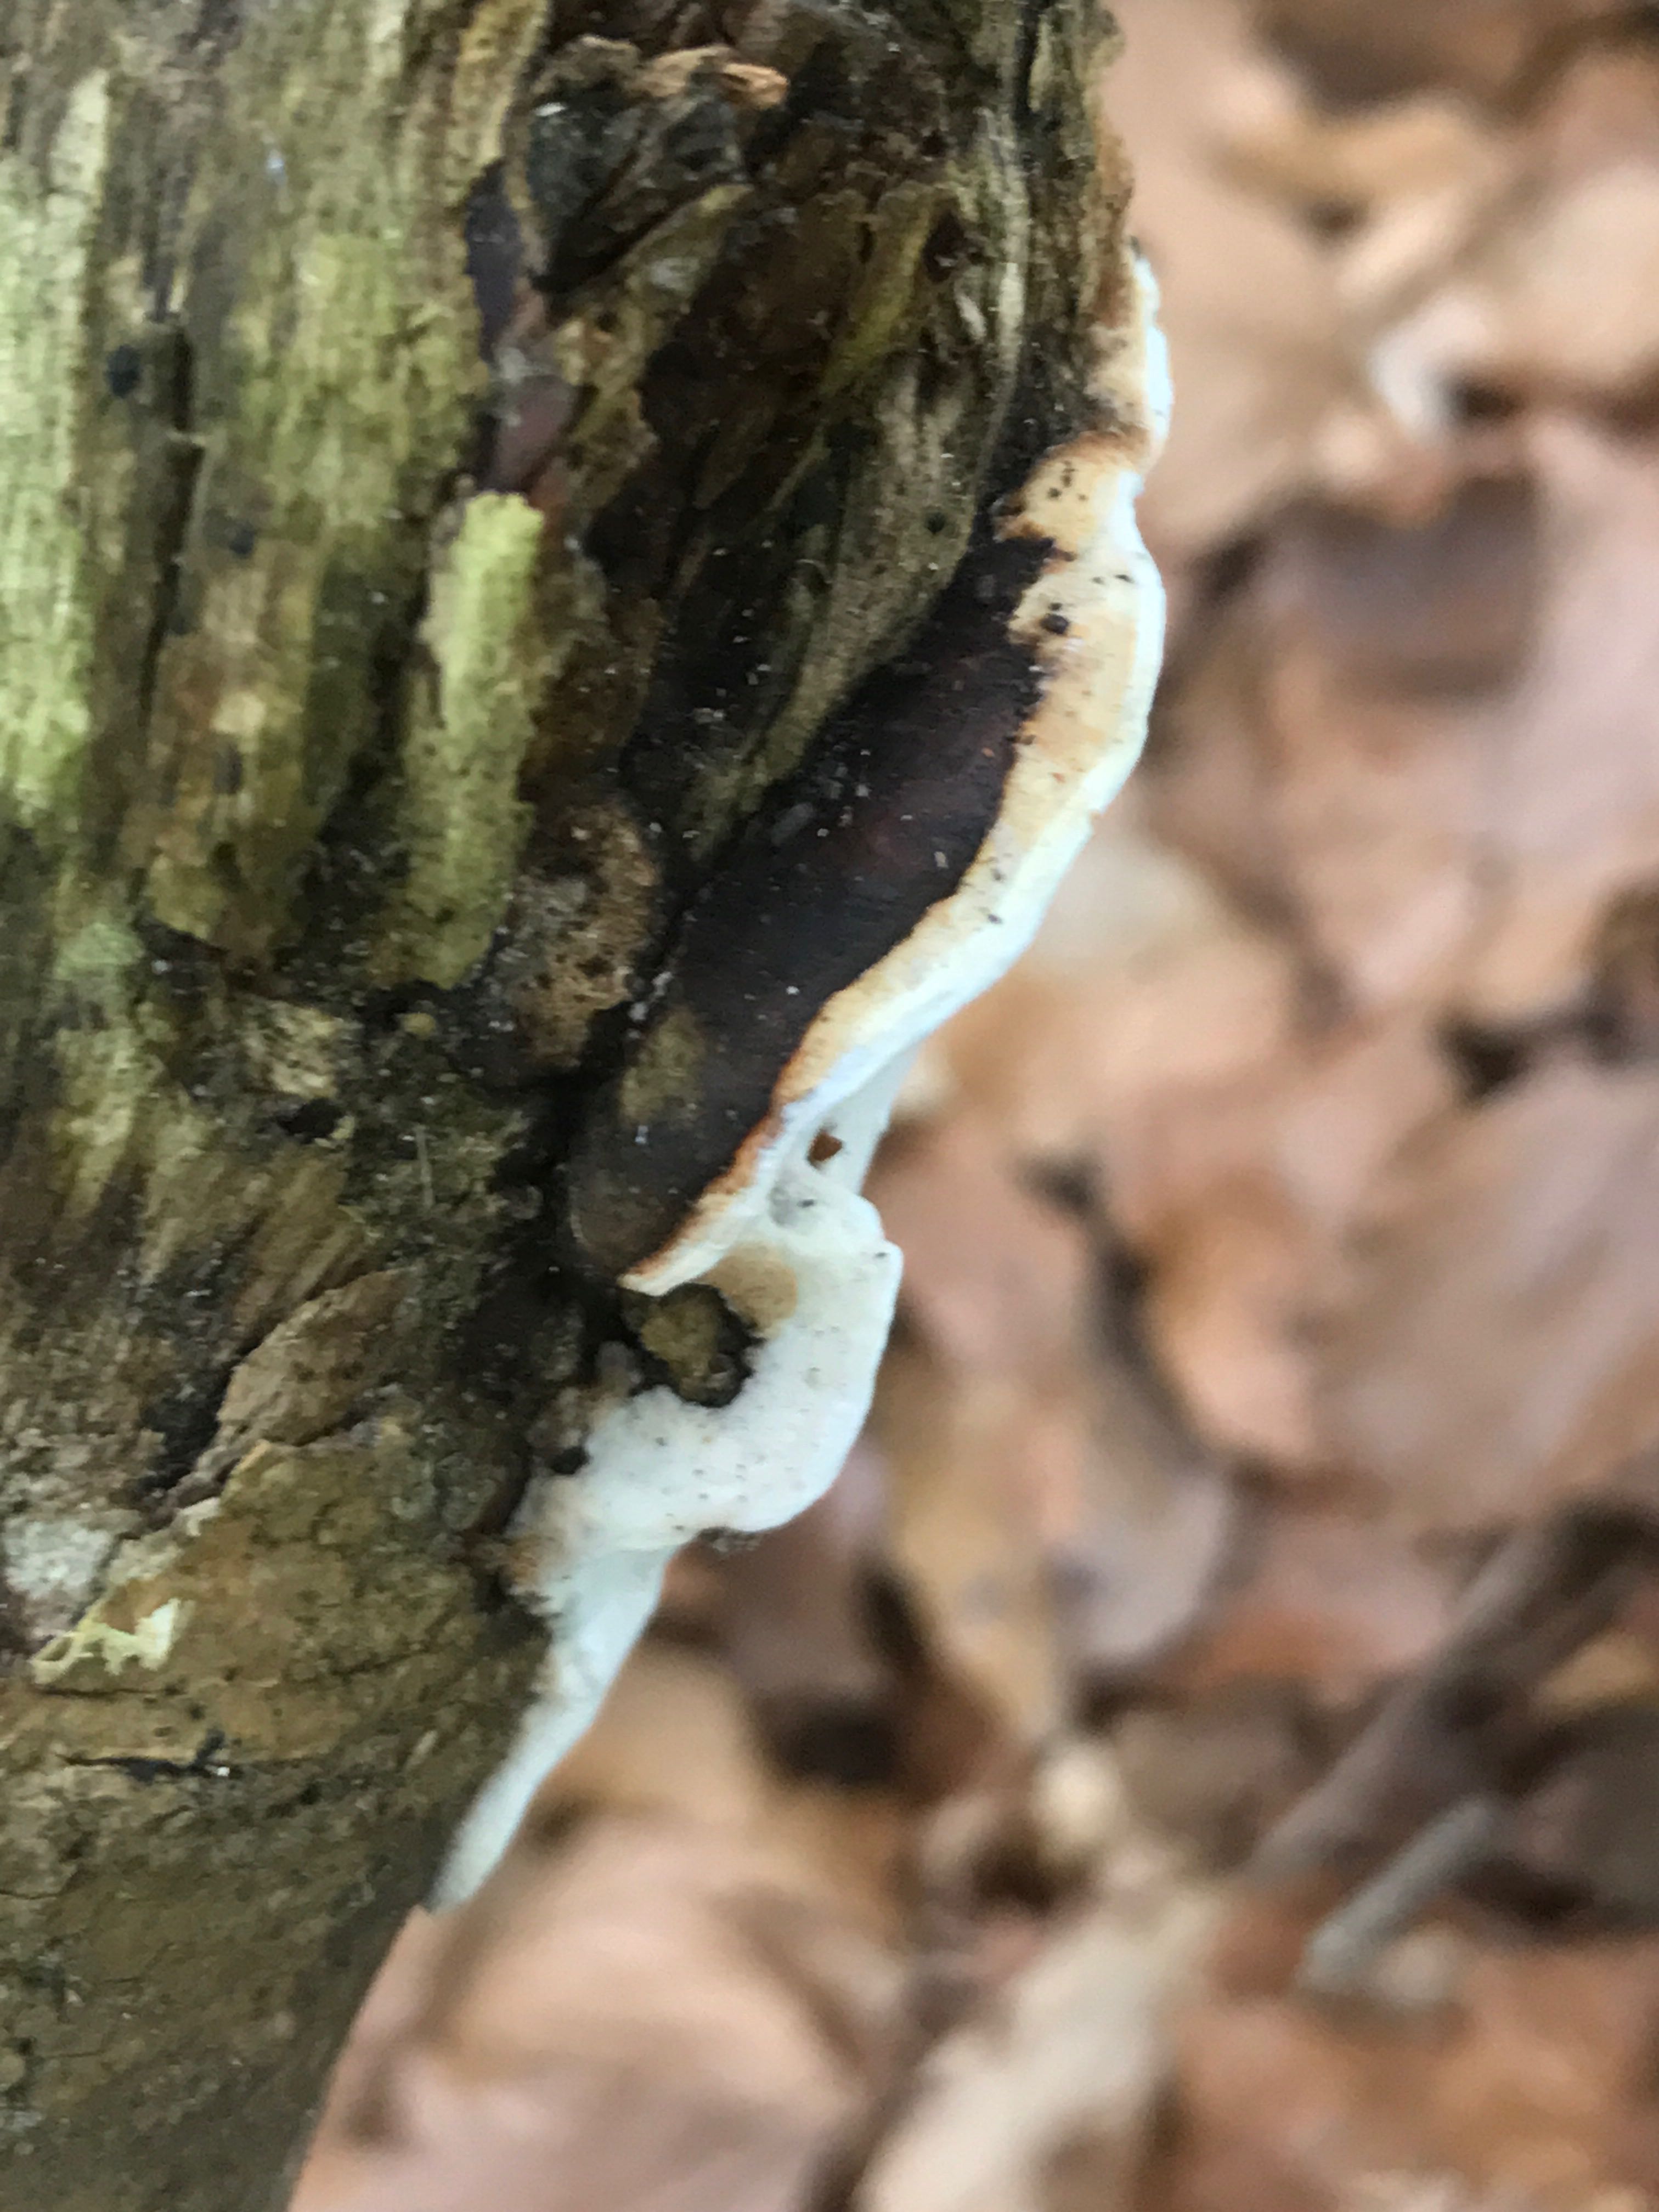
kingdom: Fungi
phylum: Basidiomycota
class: Agaricomycetes
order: Polyporales
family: Incrustoporiaceae
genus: Skeletocutis
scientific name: Skeletocutis nemoralis
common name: stor krystalporesvamp
